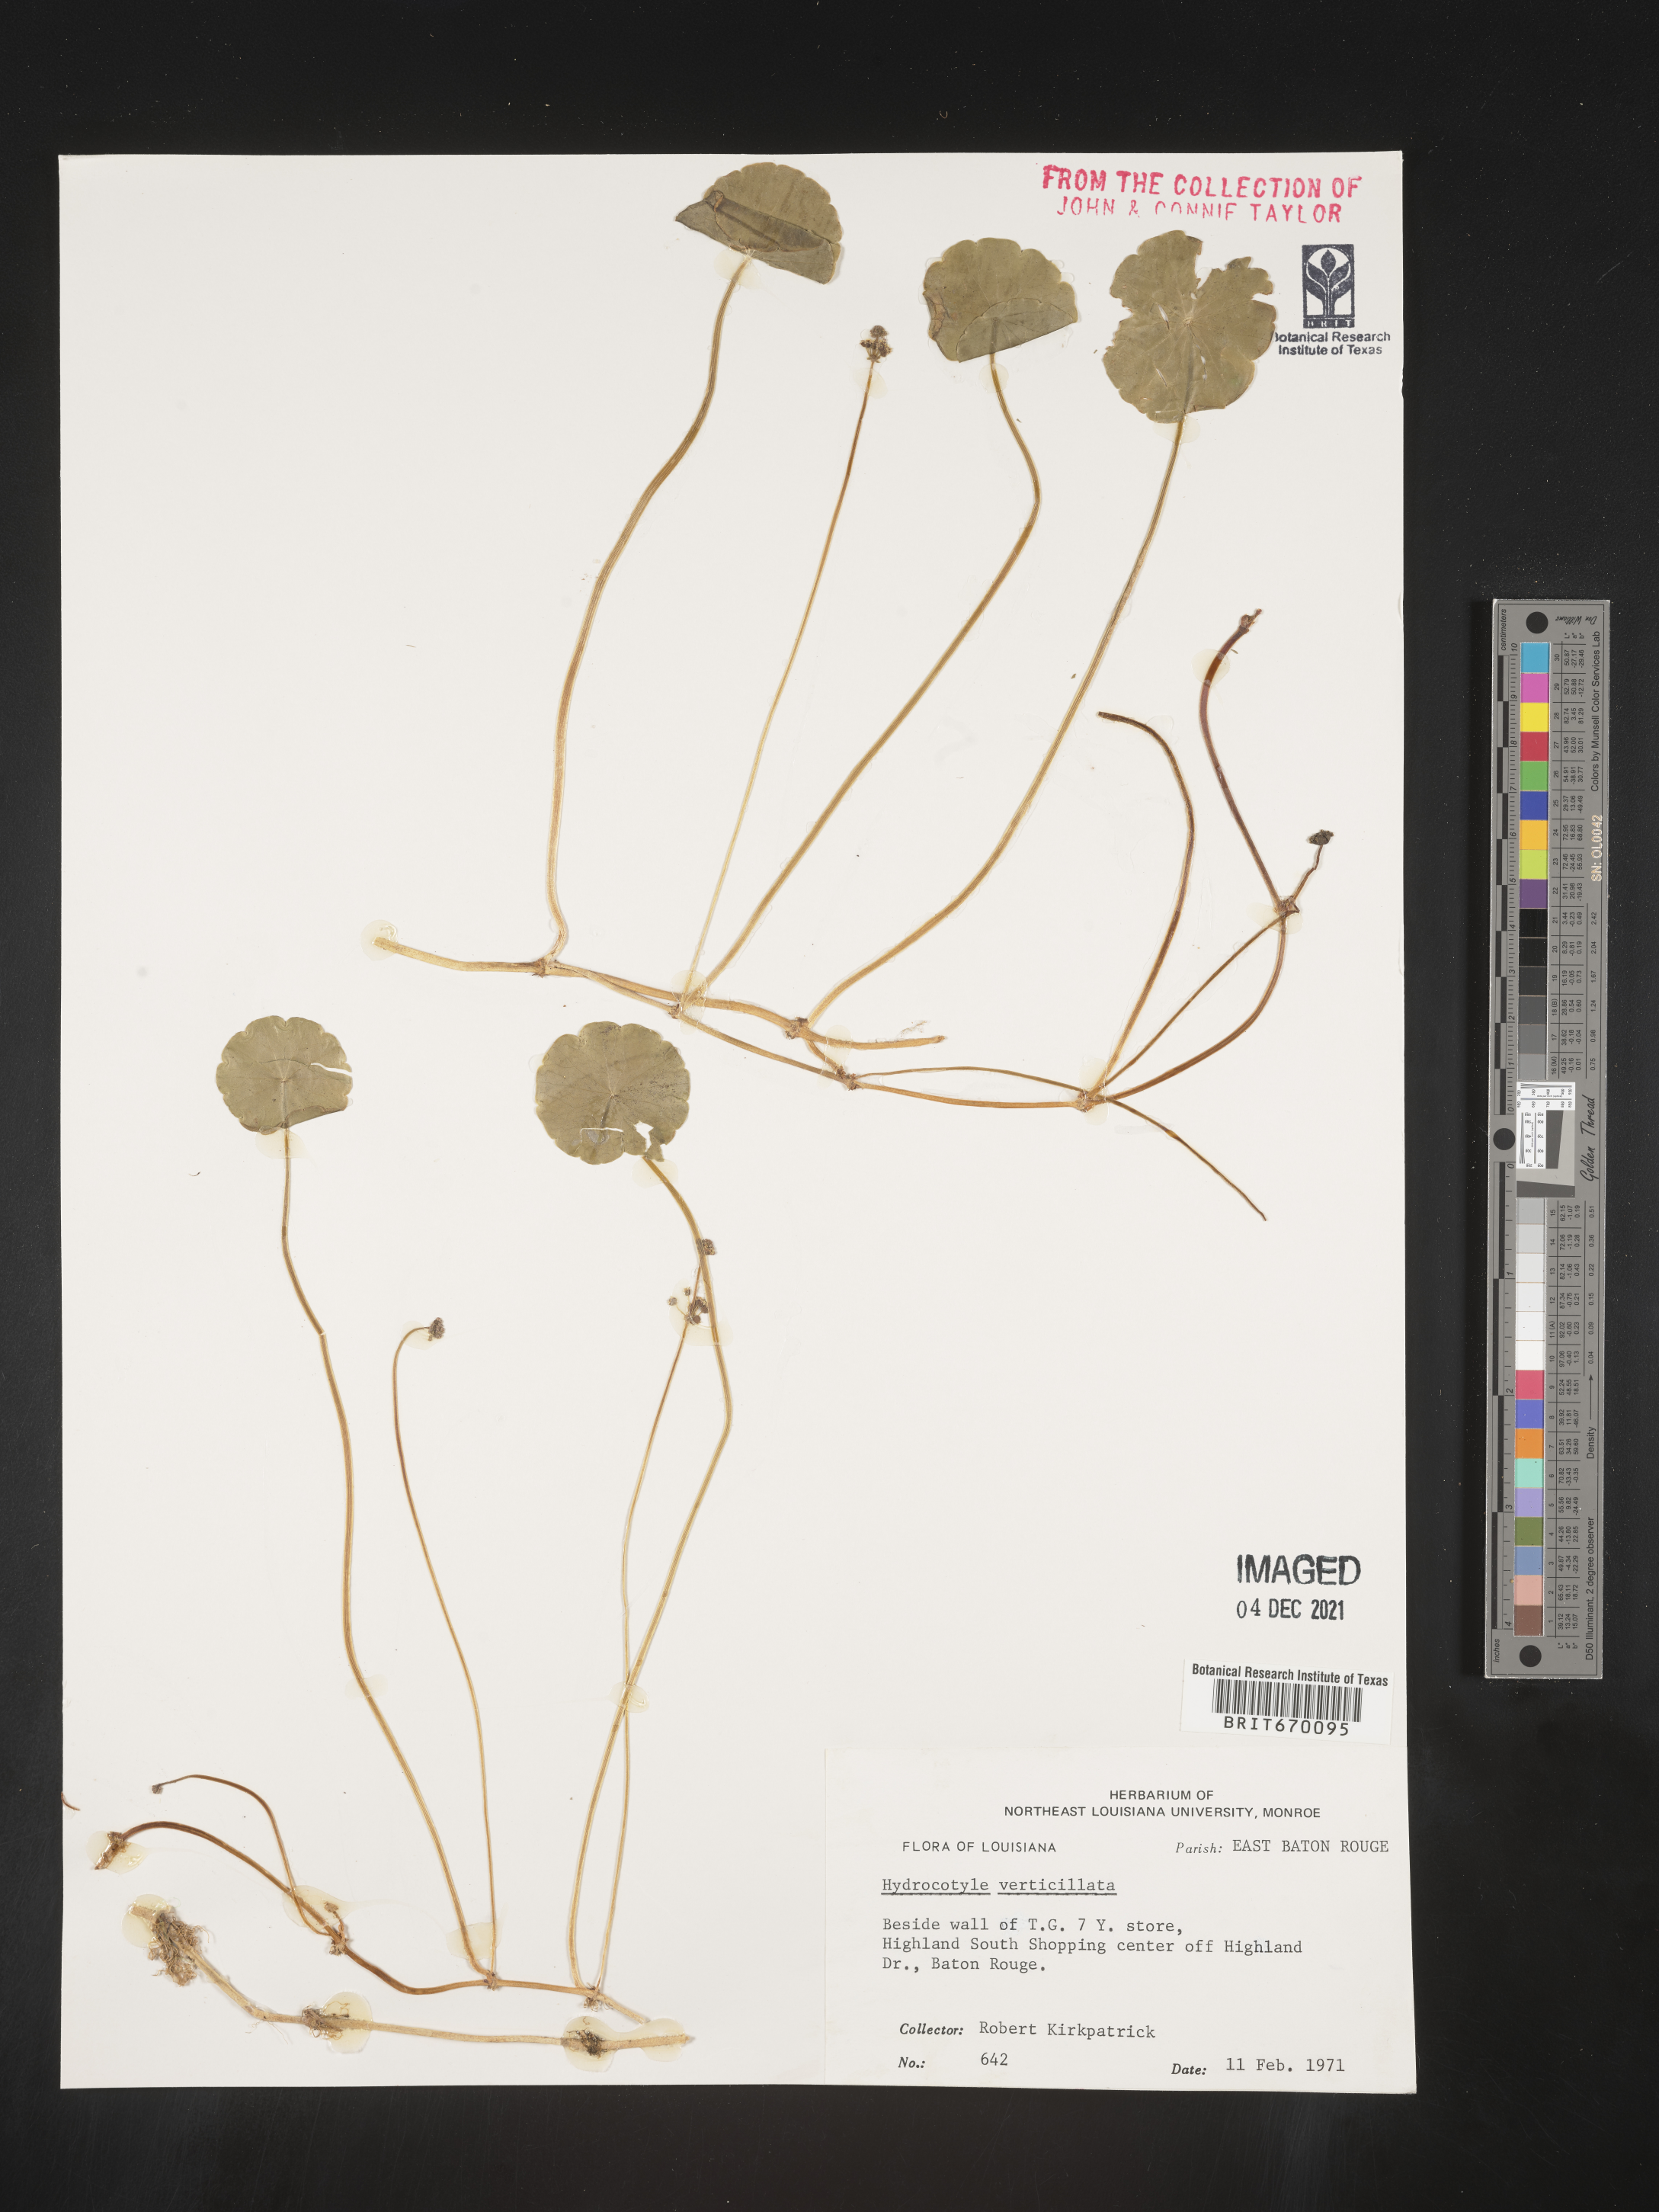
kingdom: Plantae
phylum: Tracheophyta
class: Magnoliopsida
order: Apiales
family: Araliaceae
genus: Hydrocotyle
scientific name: Hydrocotyle umbellata
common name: Water pennywort
